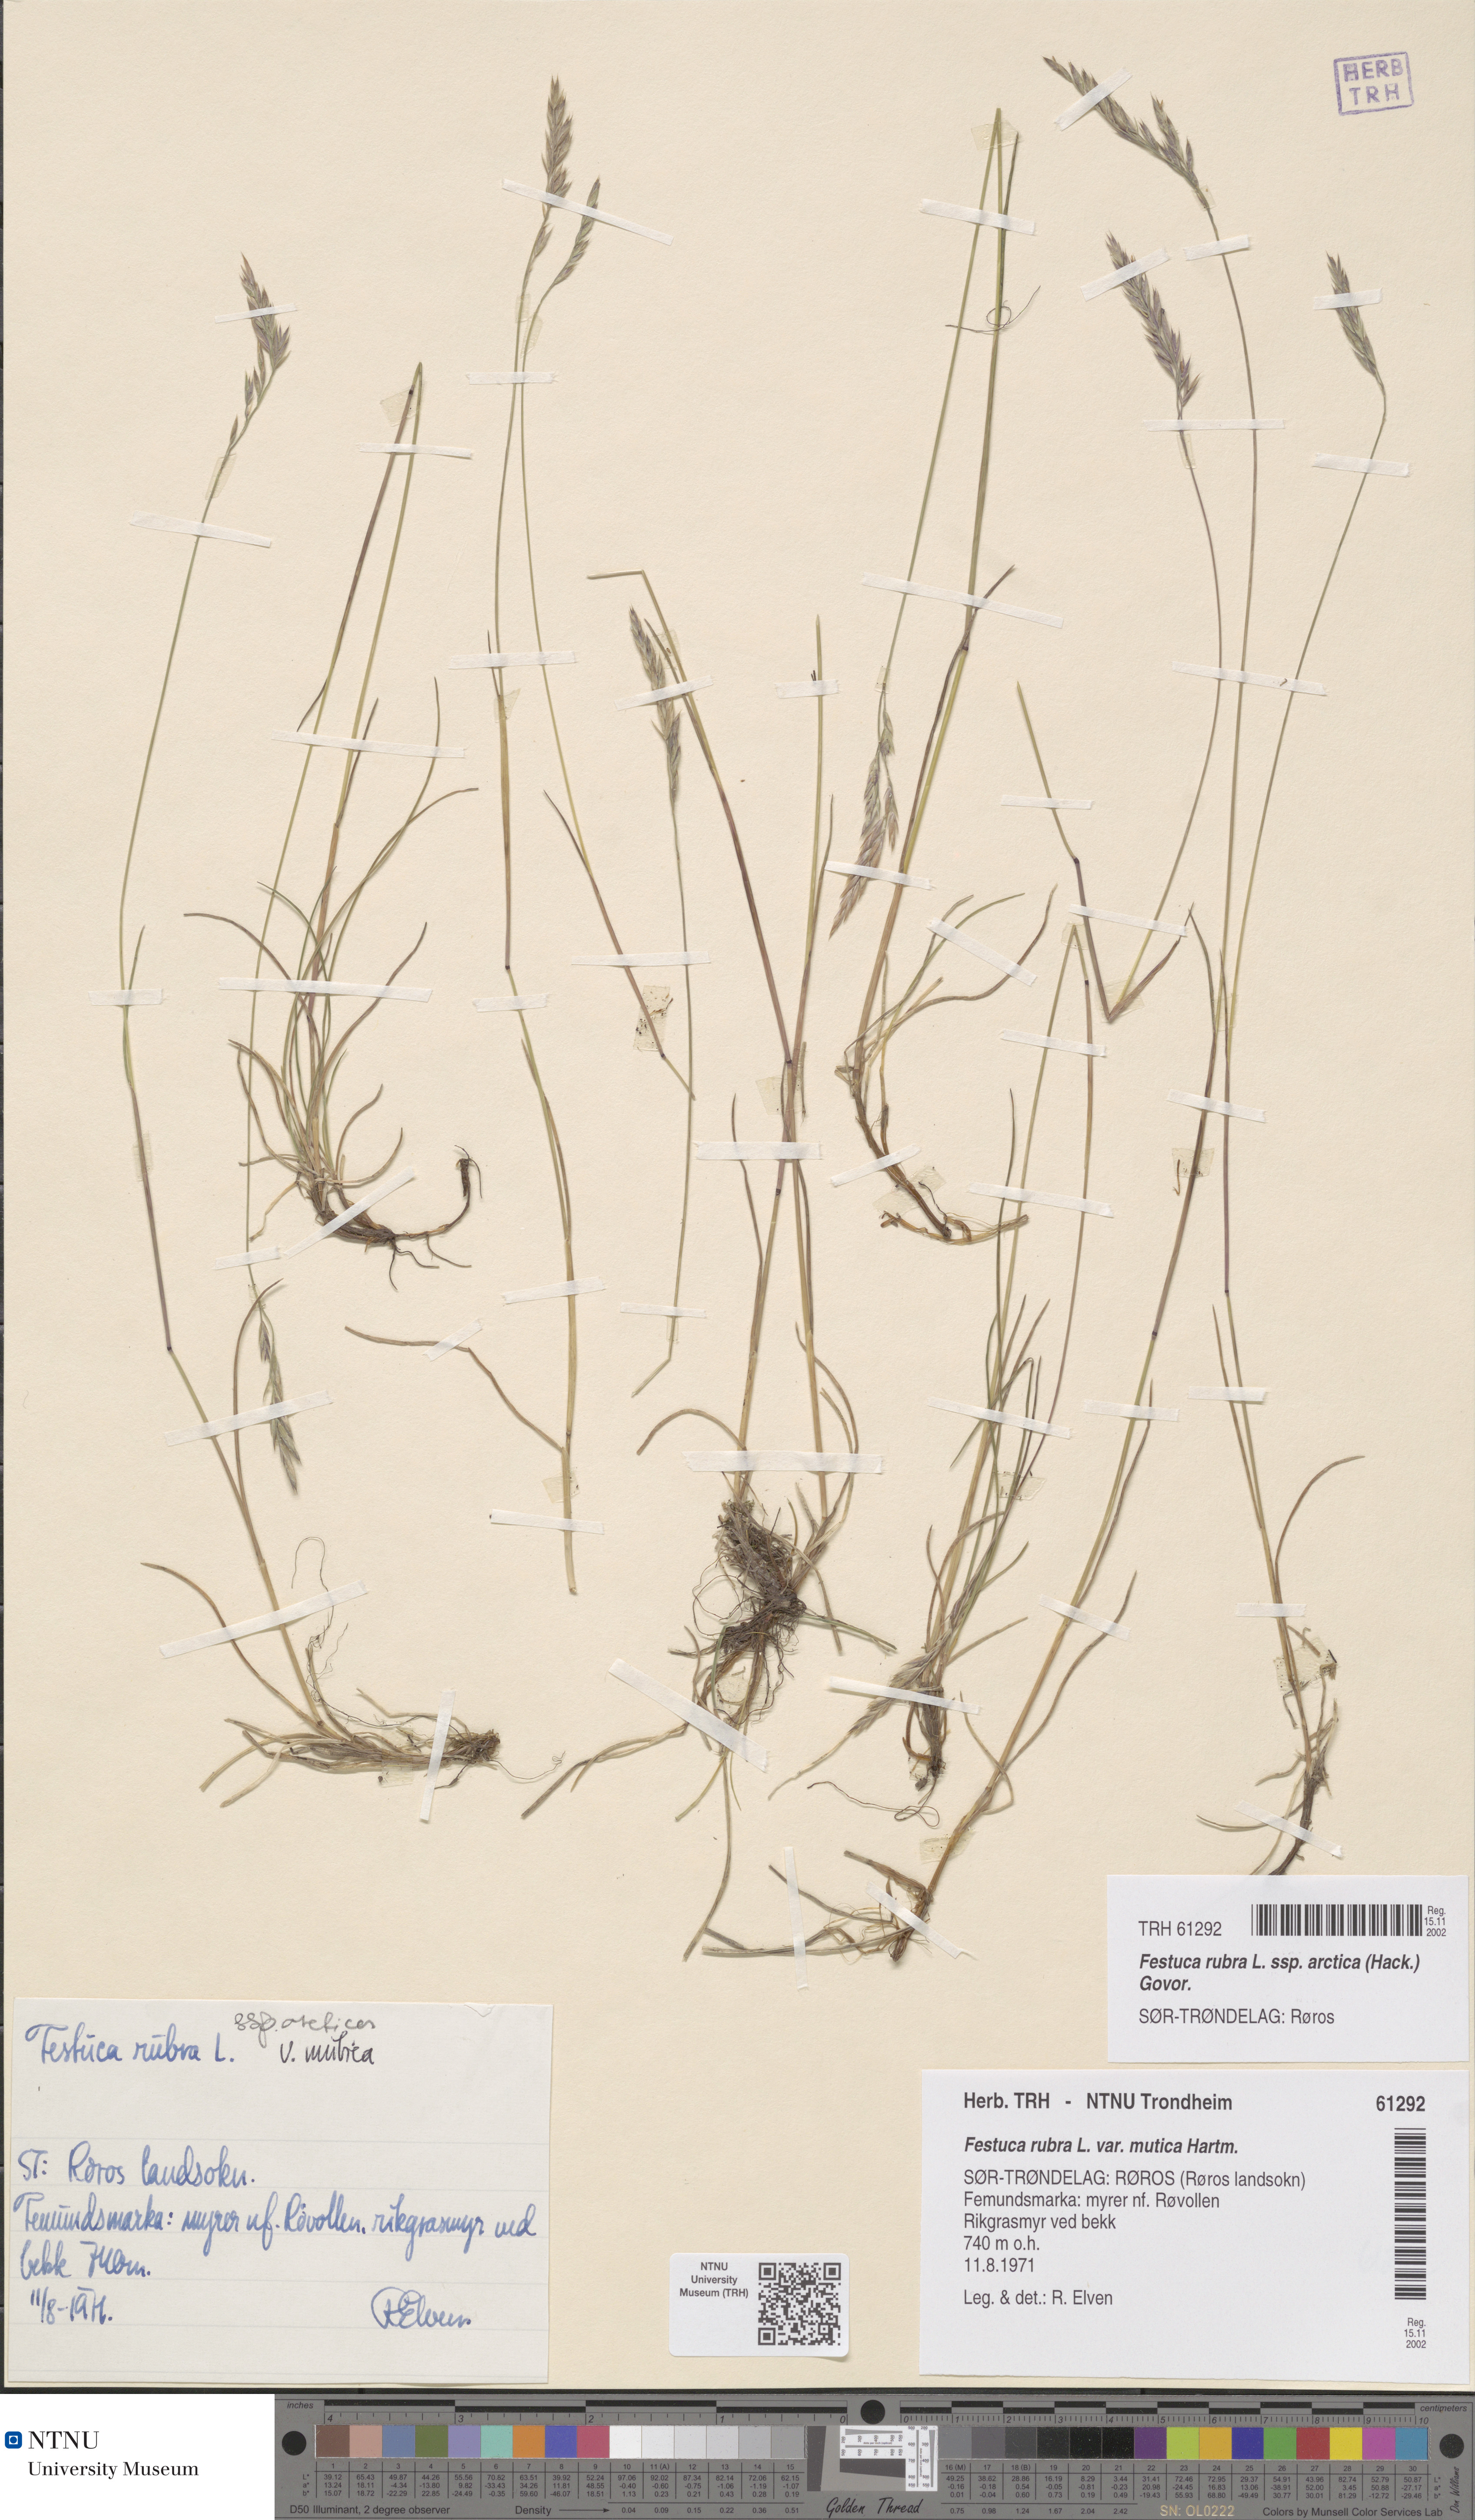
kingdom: Plantae
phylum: Tracheophyta
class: Liliopsida
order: Poales
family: Poaceae
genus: Festuca
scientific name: Festuca richardsonii
